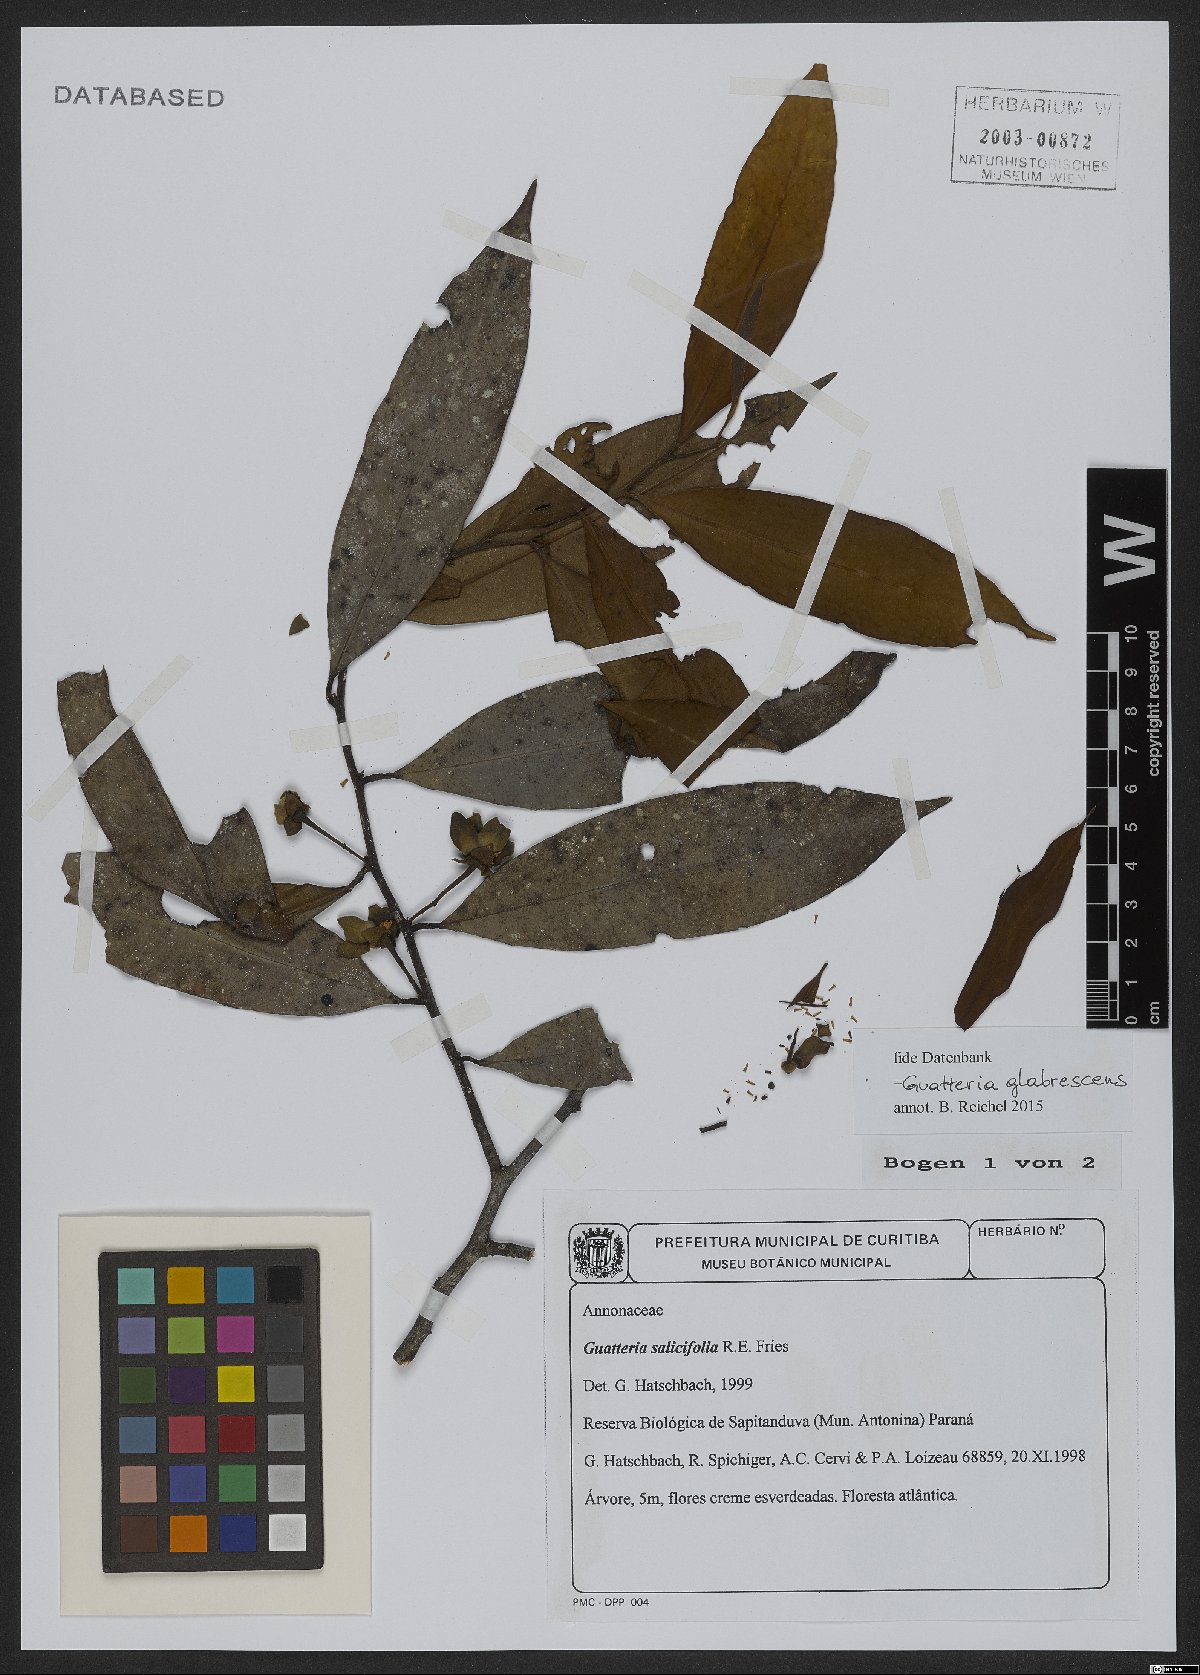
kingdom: Plantae
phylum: Tracheophyta
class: Magnoliopsida
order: Magnoliales
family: Annonaceae
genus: Guatteria
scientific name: Guatteria australis
